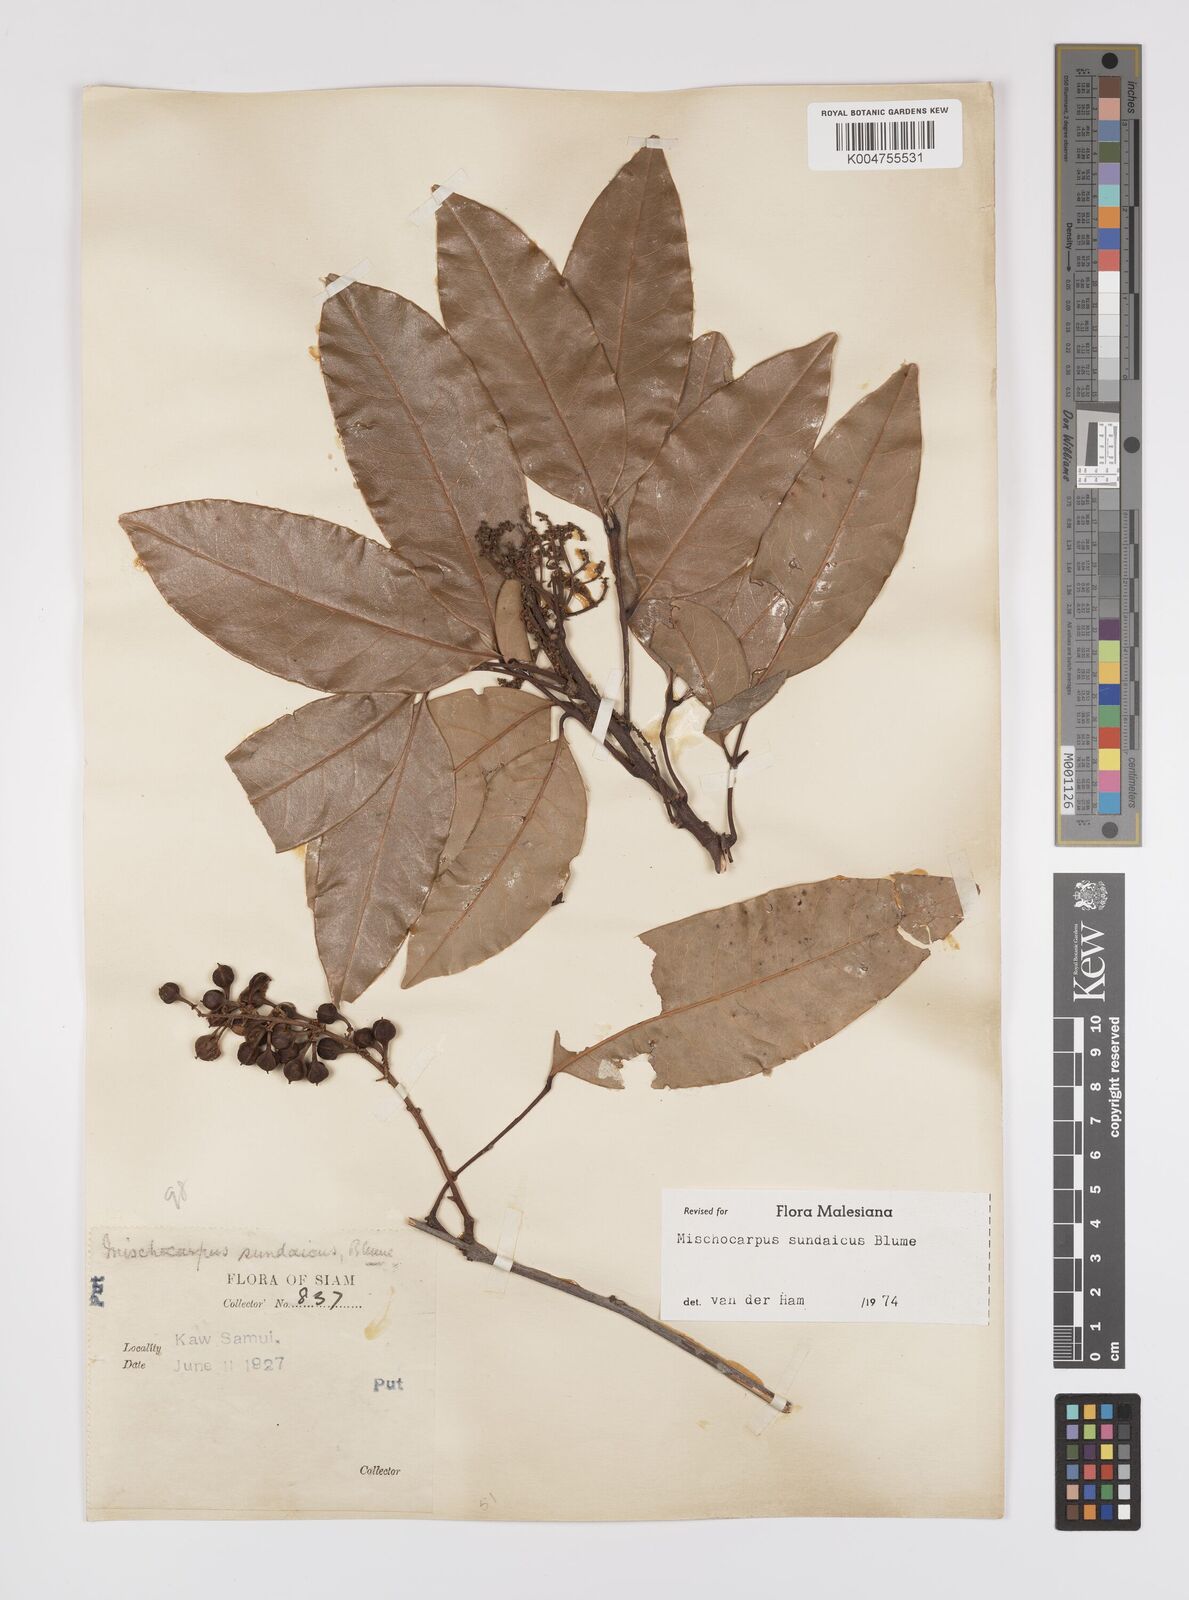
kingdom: Plantae
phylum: Tracheophyta
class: Magnoliopsida
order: Sapindales
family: Sapindaceae
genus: Mischocarpus
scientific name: Mischocarpus sundaicus
